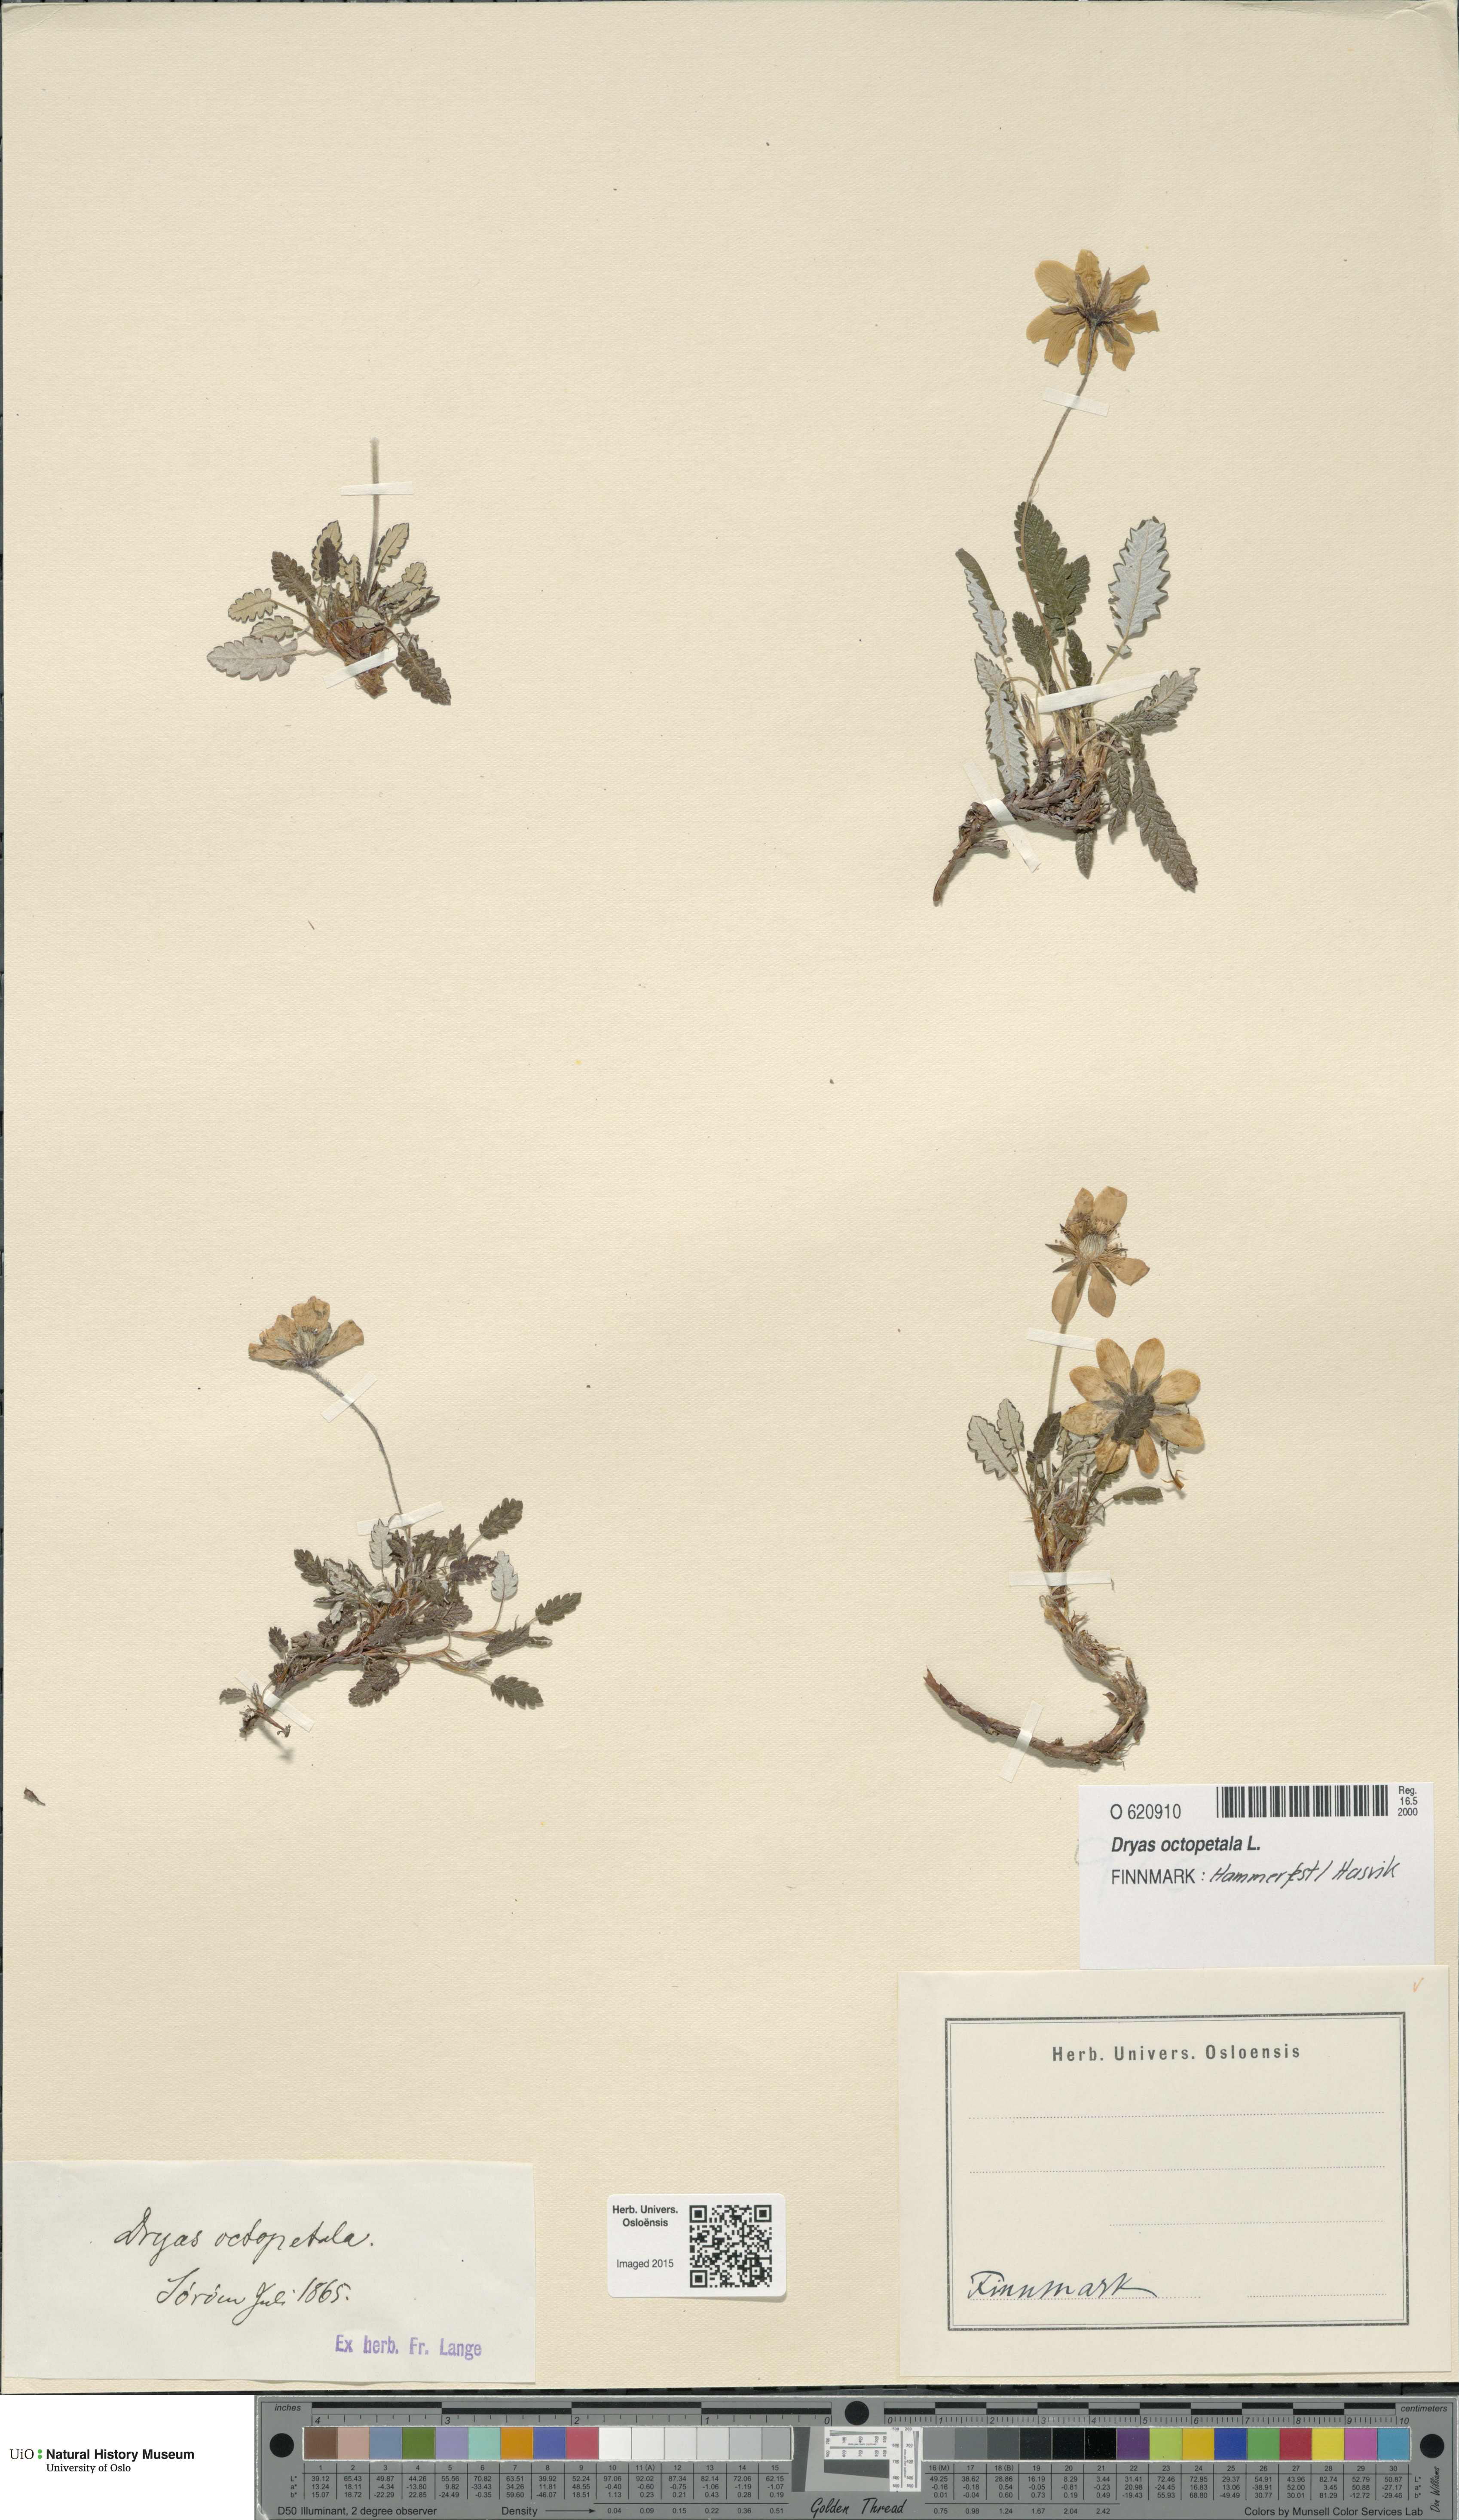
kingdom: Plantae
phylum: Tracheophyta
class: Magnoliopsida
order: Rosales
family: Rosaceae
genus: Dryas
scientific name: Dryas octopetala
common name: Eight-petal mountain-avens
